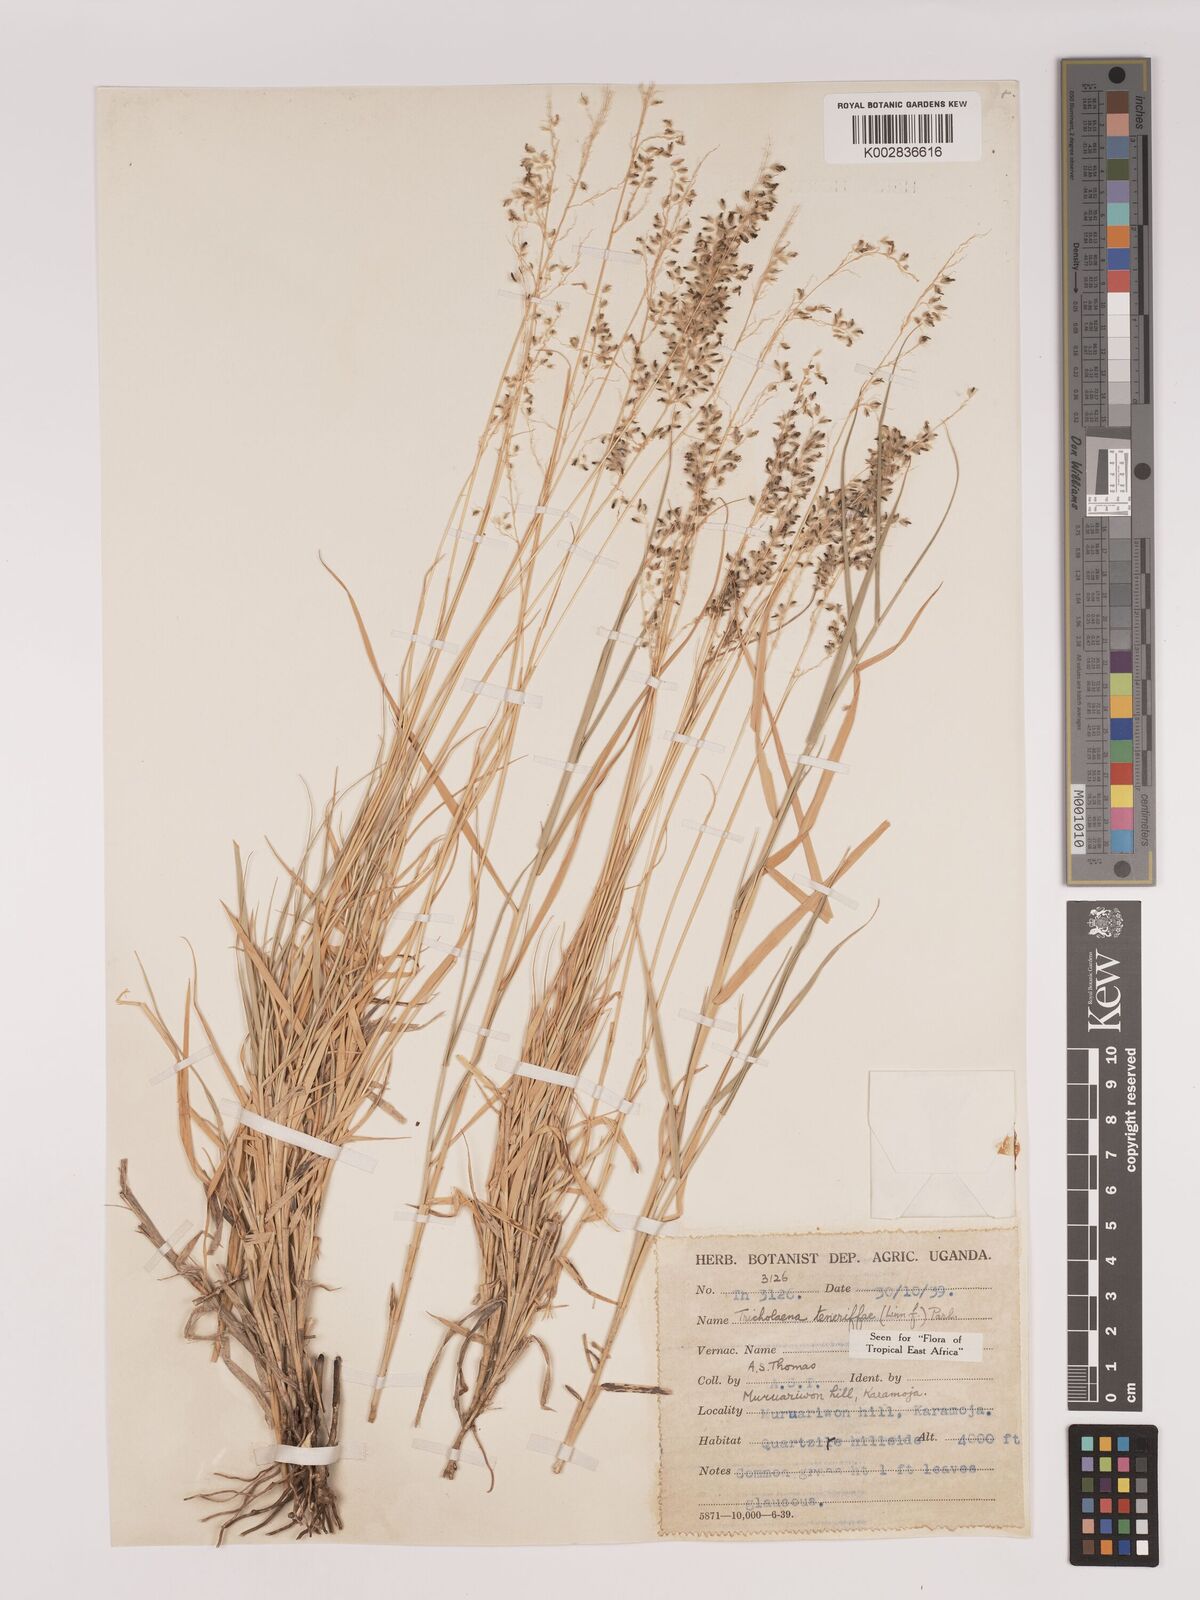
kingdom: Plantae
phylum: Tracheophyta
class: Liliopsida
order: Poales
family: Poaceae
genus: Tricholaena
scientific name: Tricholaena teneriffae
